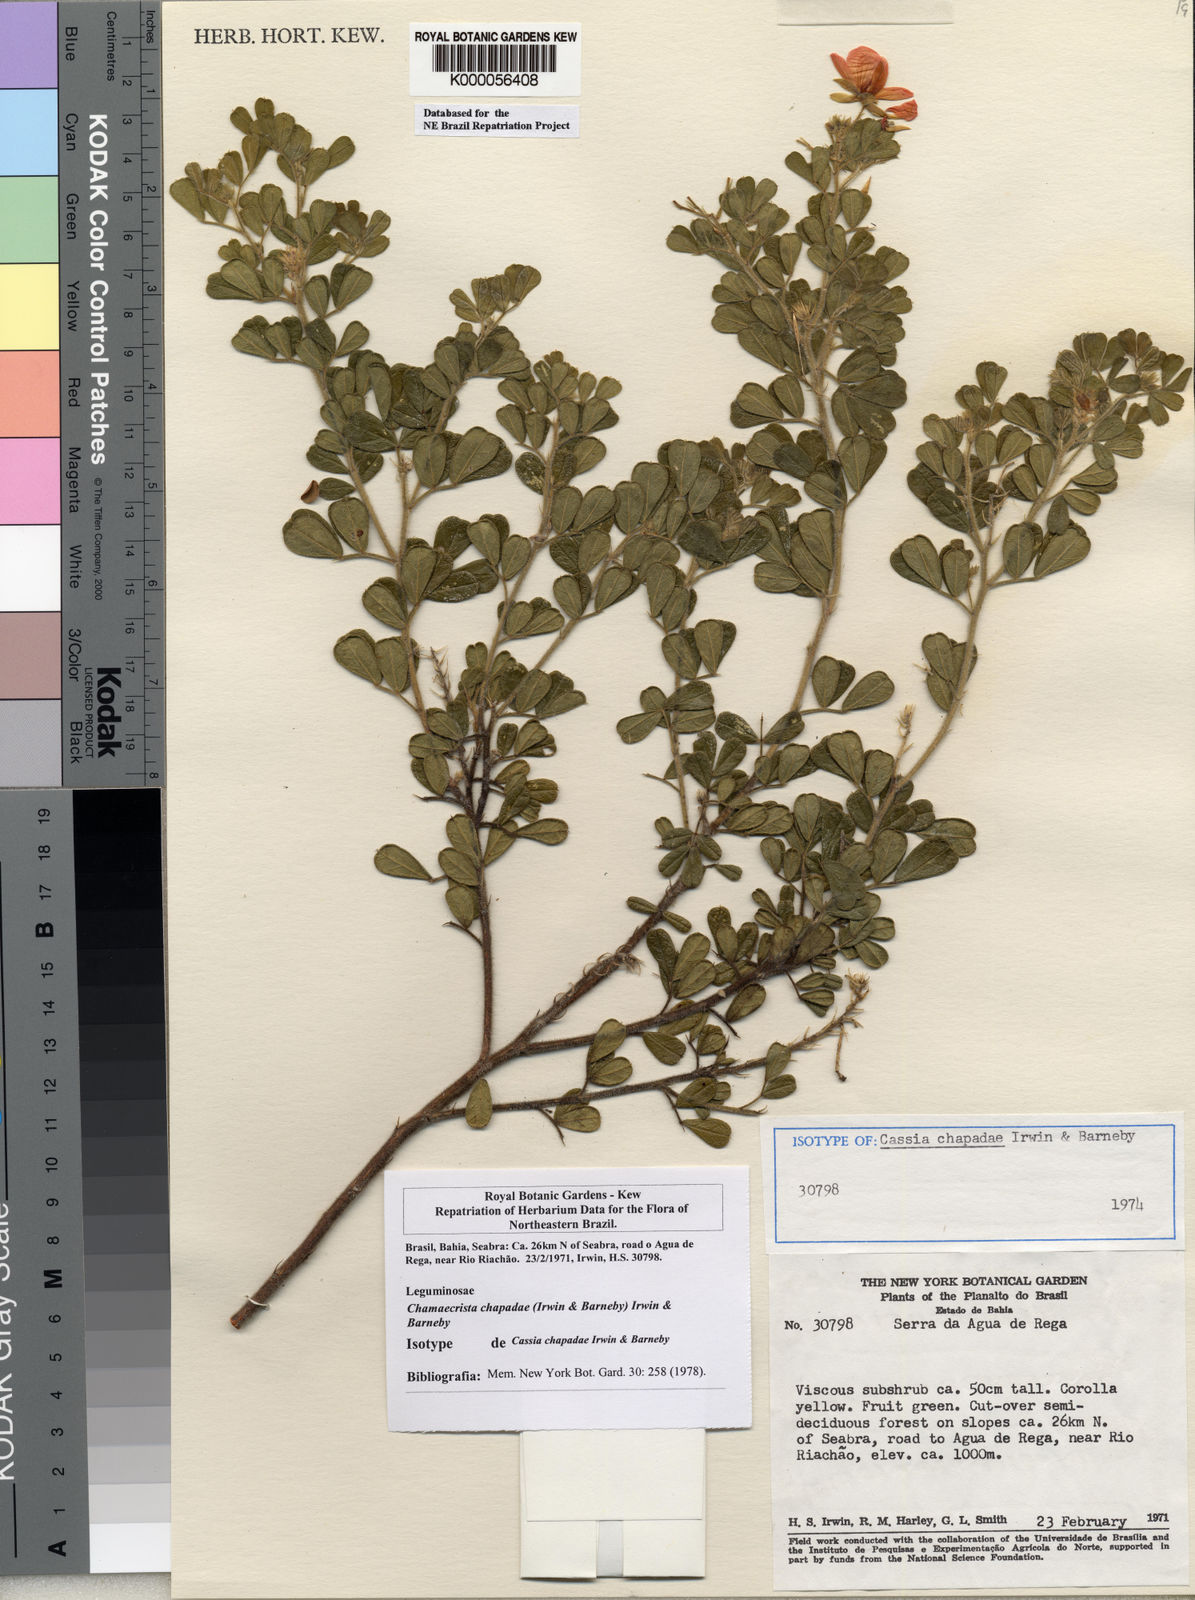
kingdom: Plantae
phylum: Tracheophyta
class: Magnoliopsida
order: Fabales
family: Fabaceae
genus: Chamaecrista
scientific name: Chamaecrista chapadae
